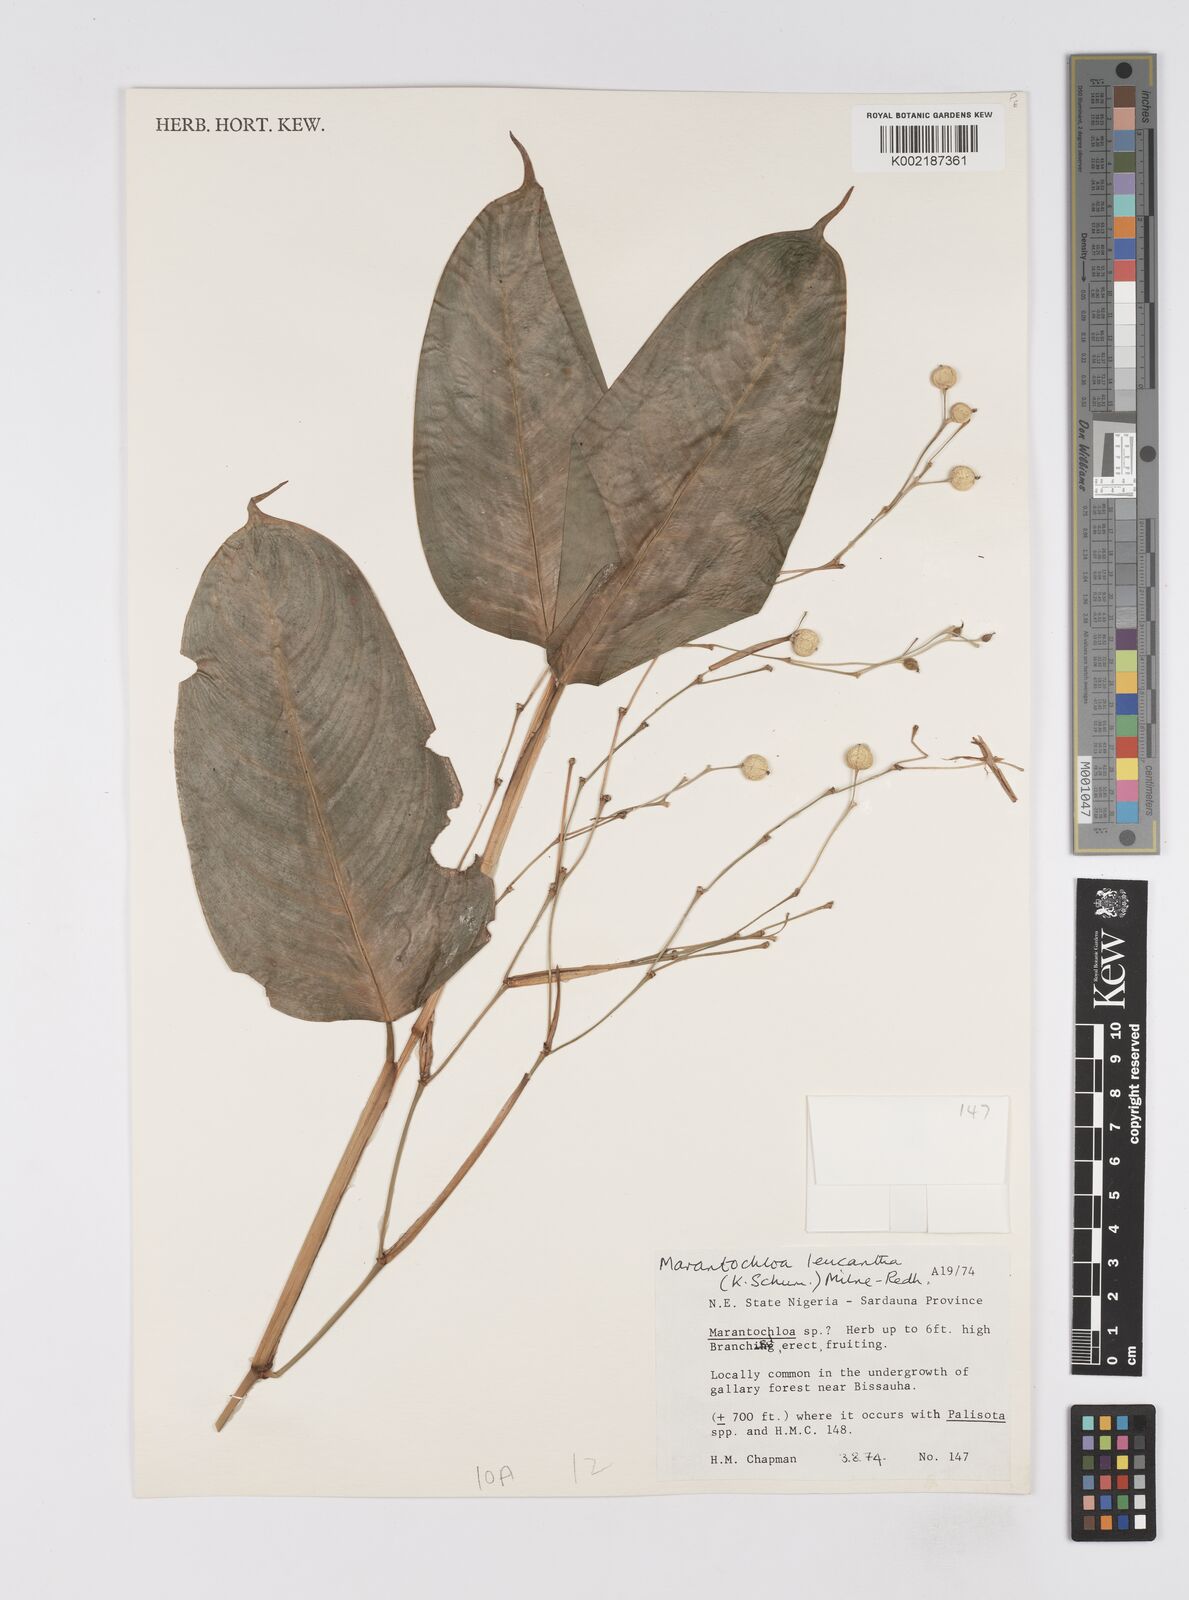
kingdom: Plantae
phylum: Tracheophyta
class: Liliopsida
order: Zingiberales
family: Marantaceae
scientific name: Marantaceae
